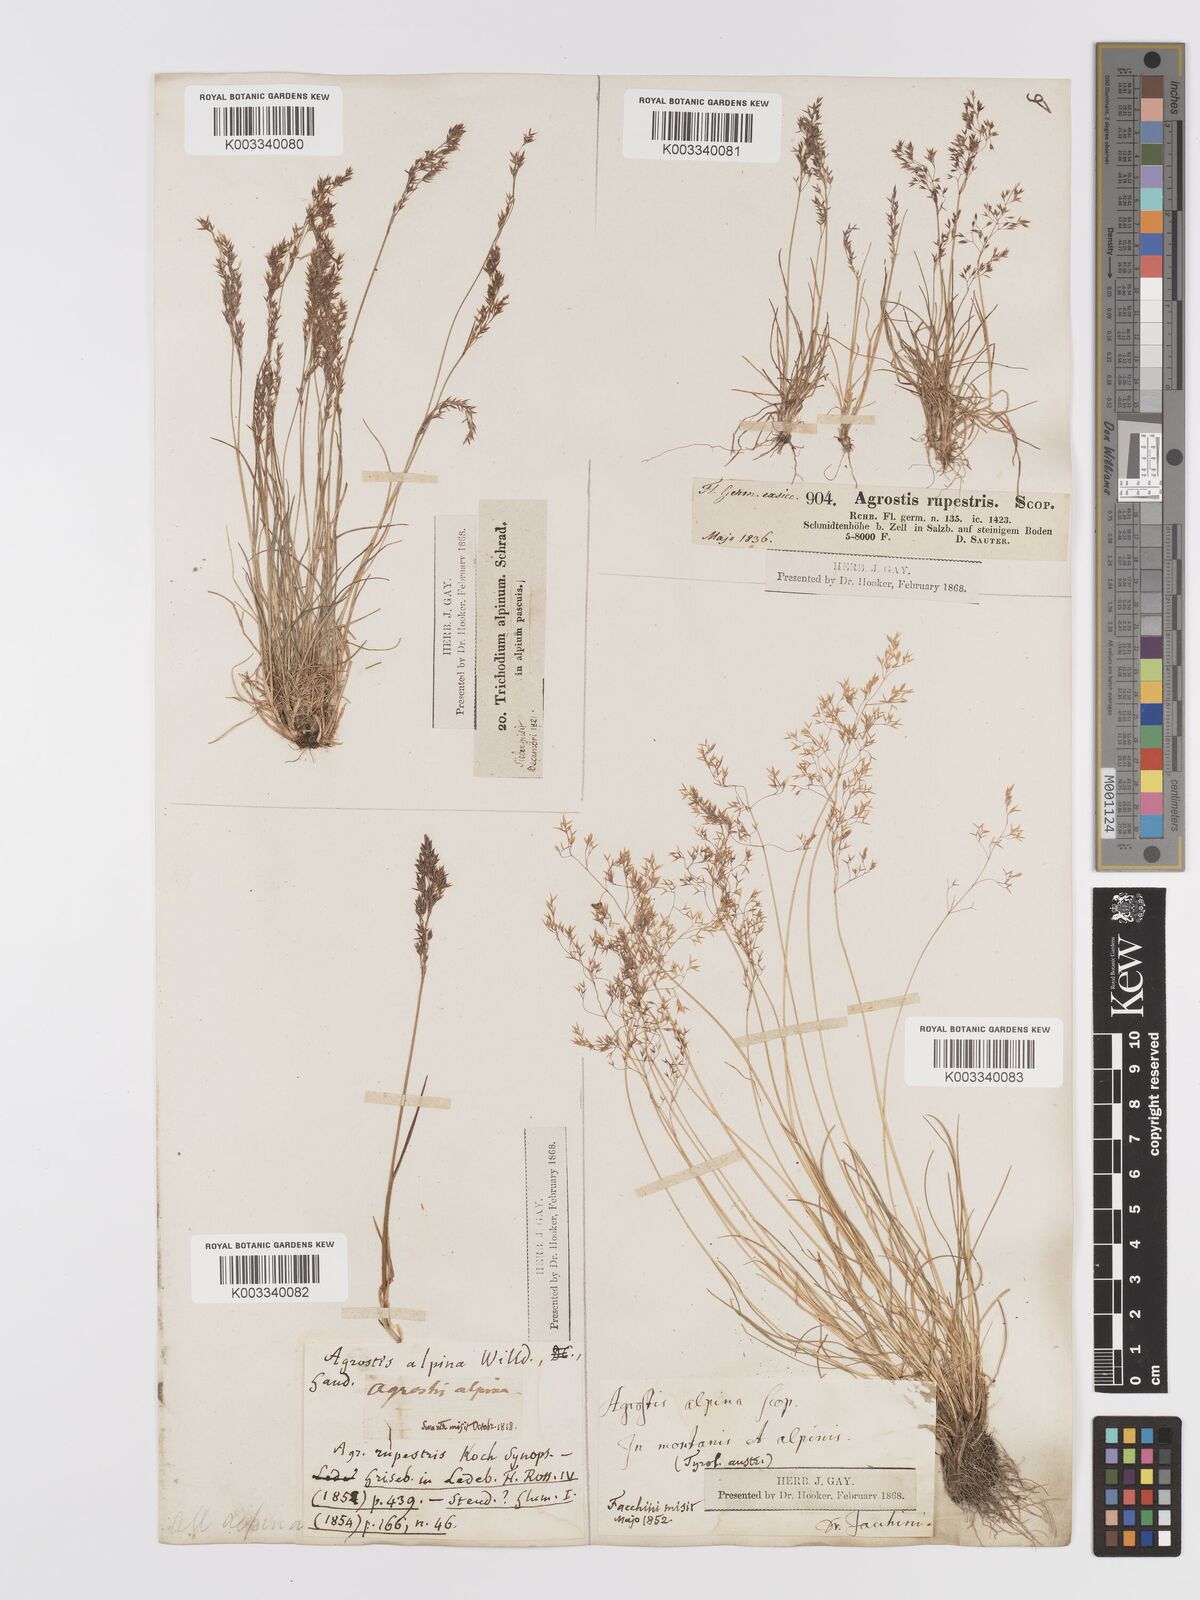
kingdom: Plantae
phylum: Tracheophyta
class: Liliopsida
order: Poales
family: Poaceae
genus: Agrostis
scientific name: Agrostis rupestris
